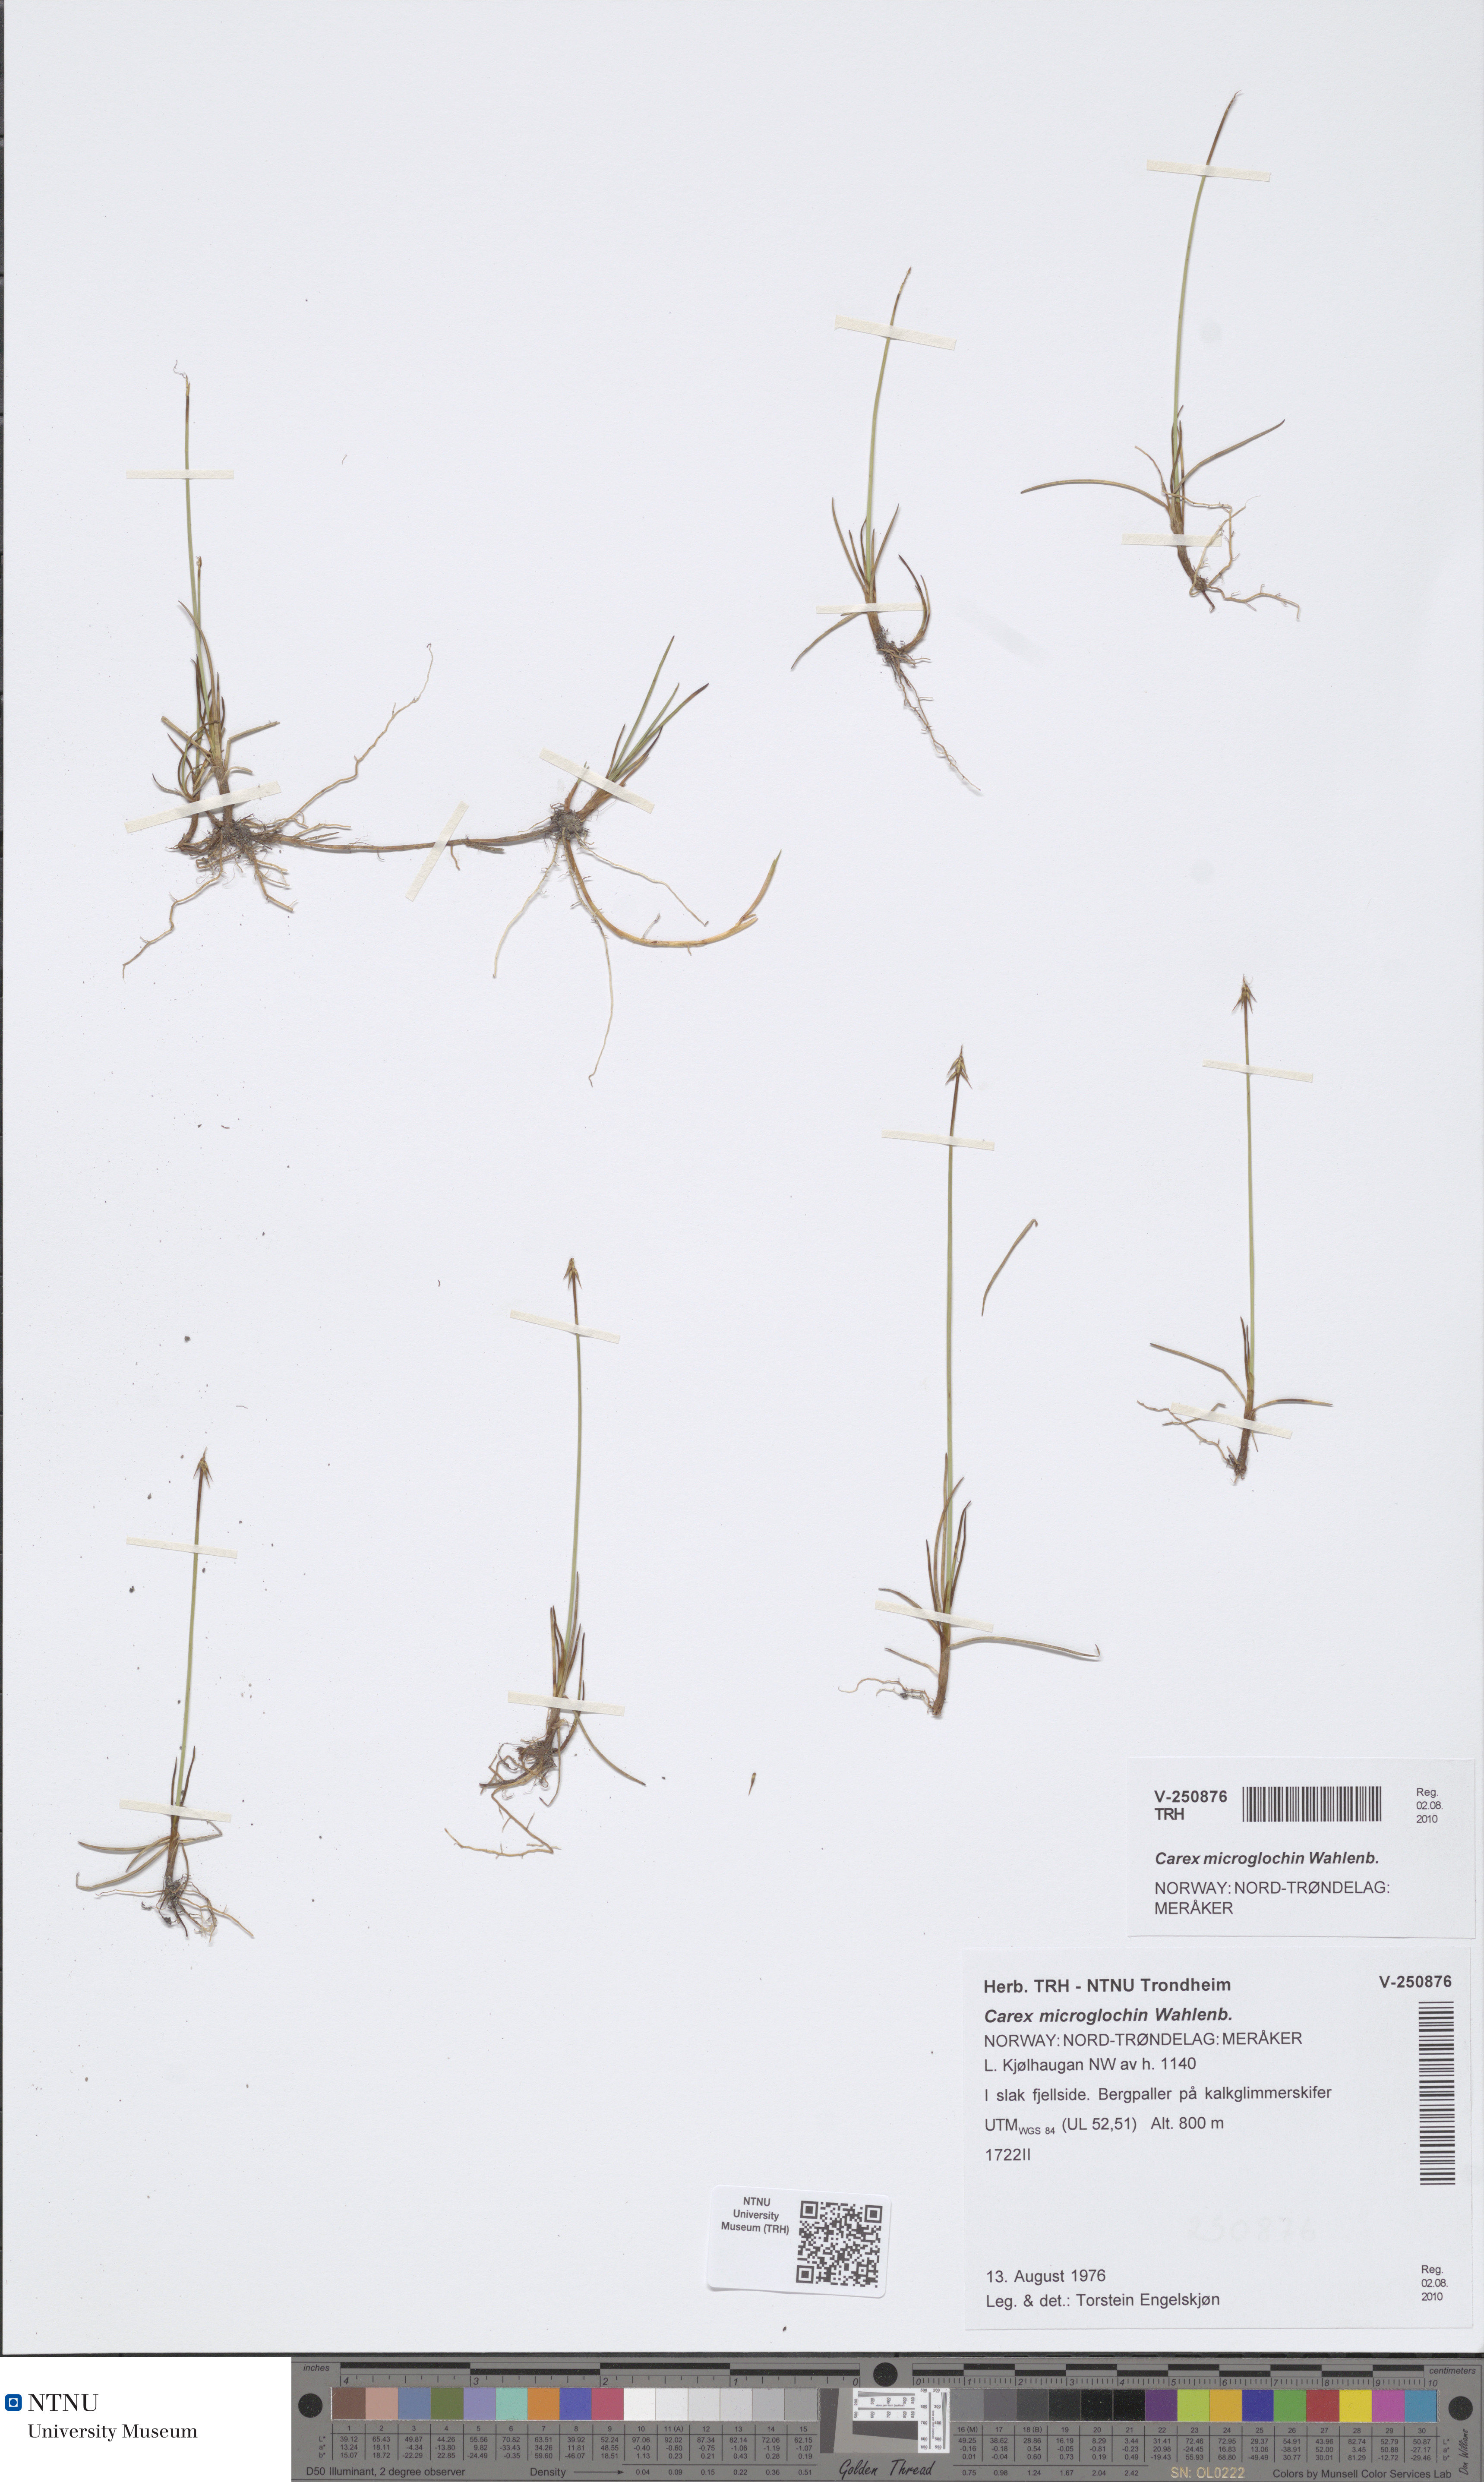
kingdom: Plantae
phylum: Tracheophyta
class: Liliopsida
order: Poales
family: Cyperaceae
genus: Carex
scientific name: Carex microglochin
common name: Bristle sedge
